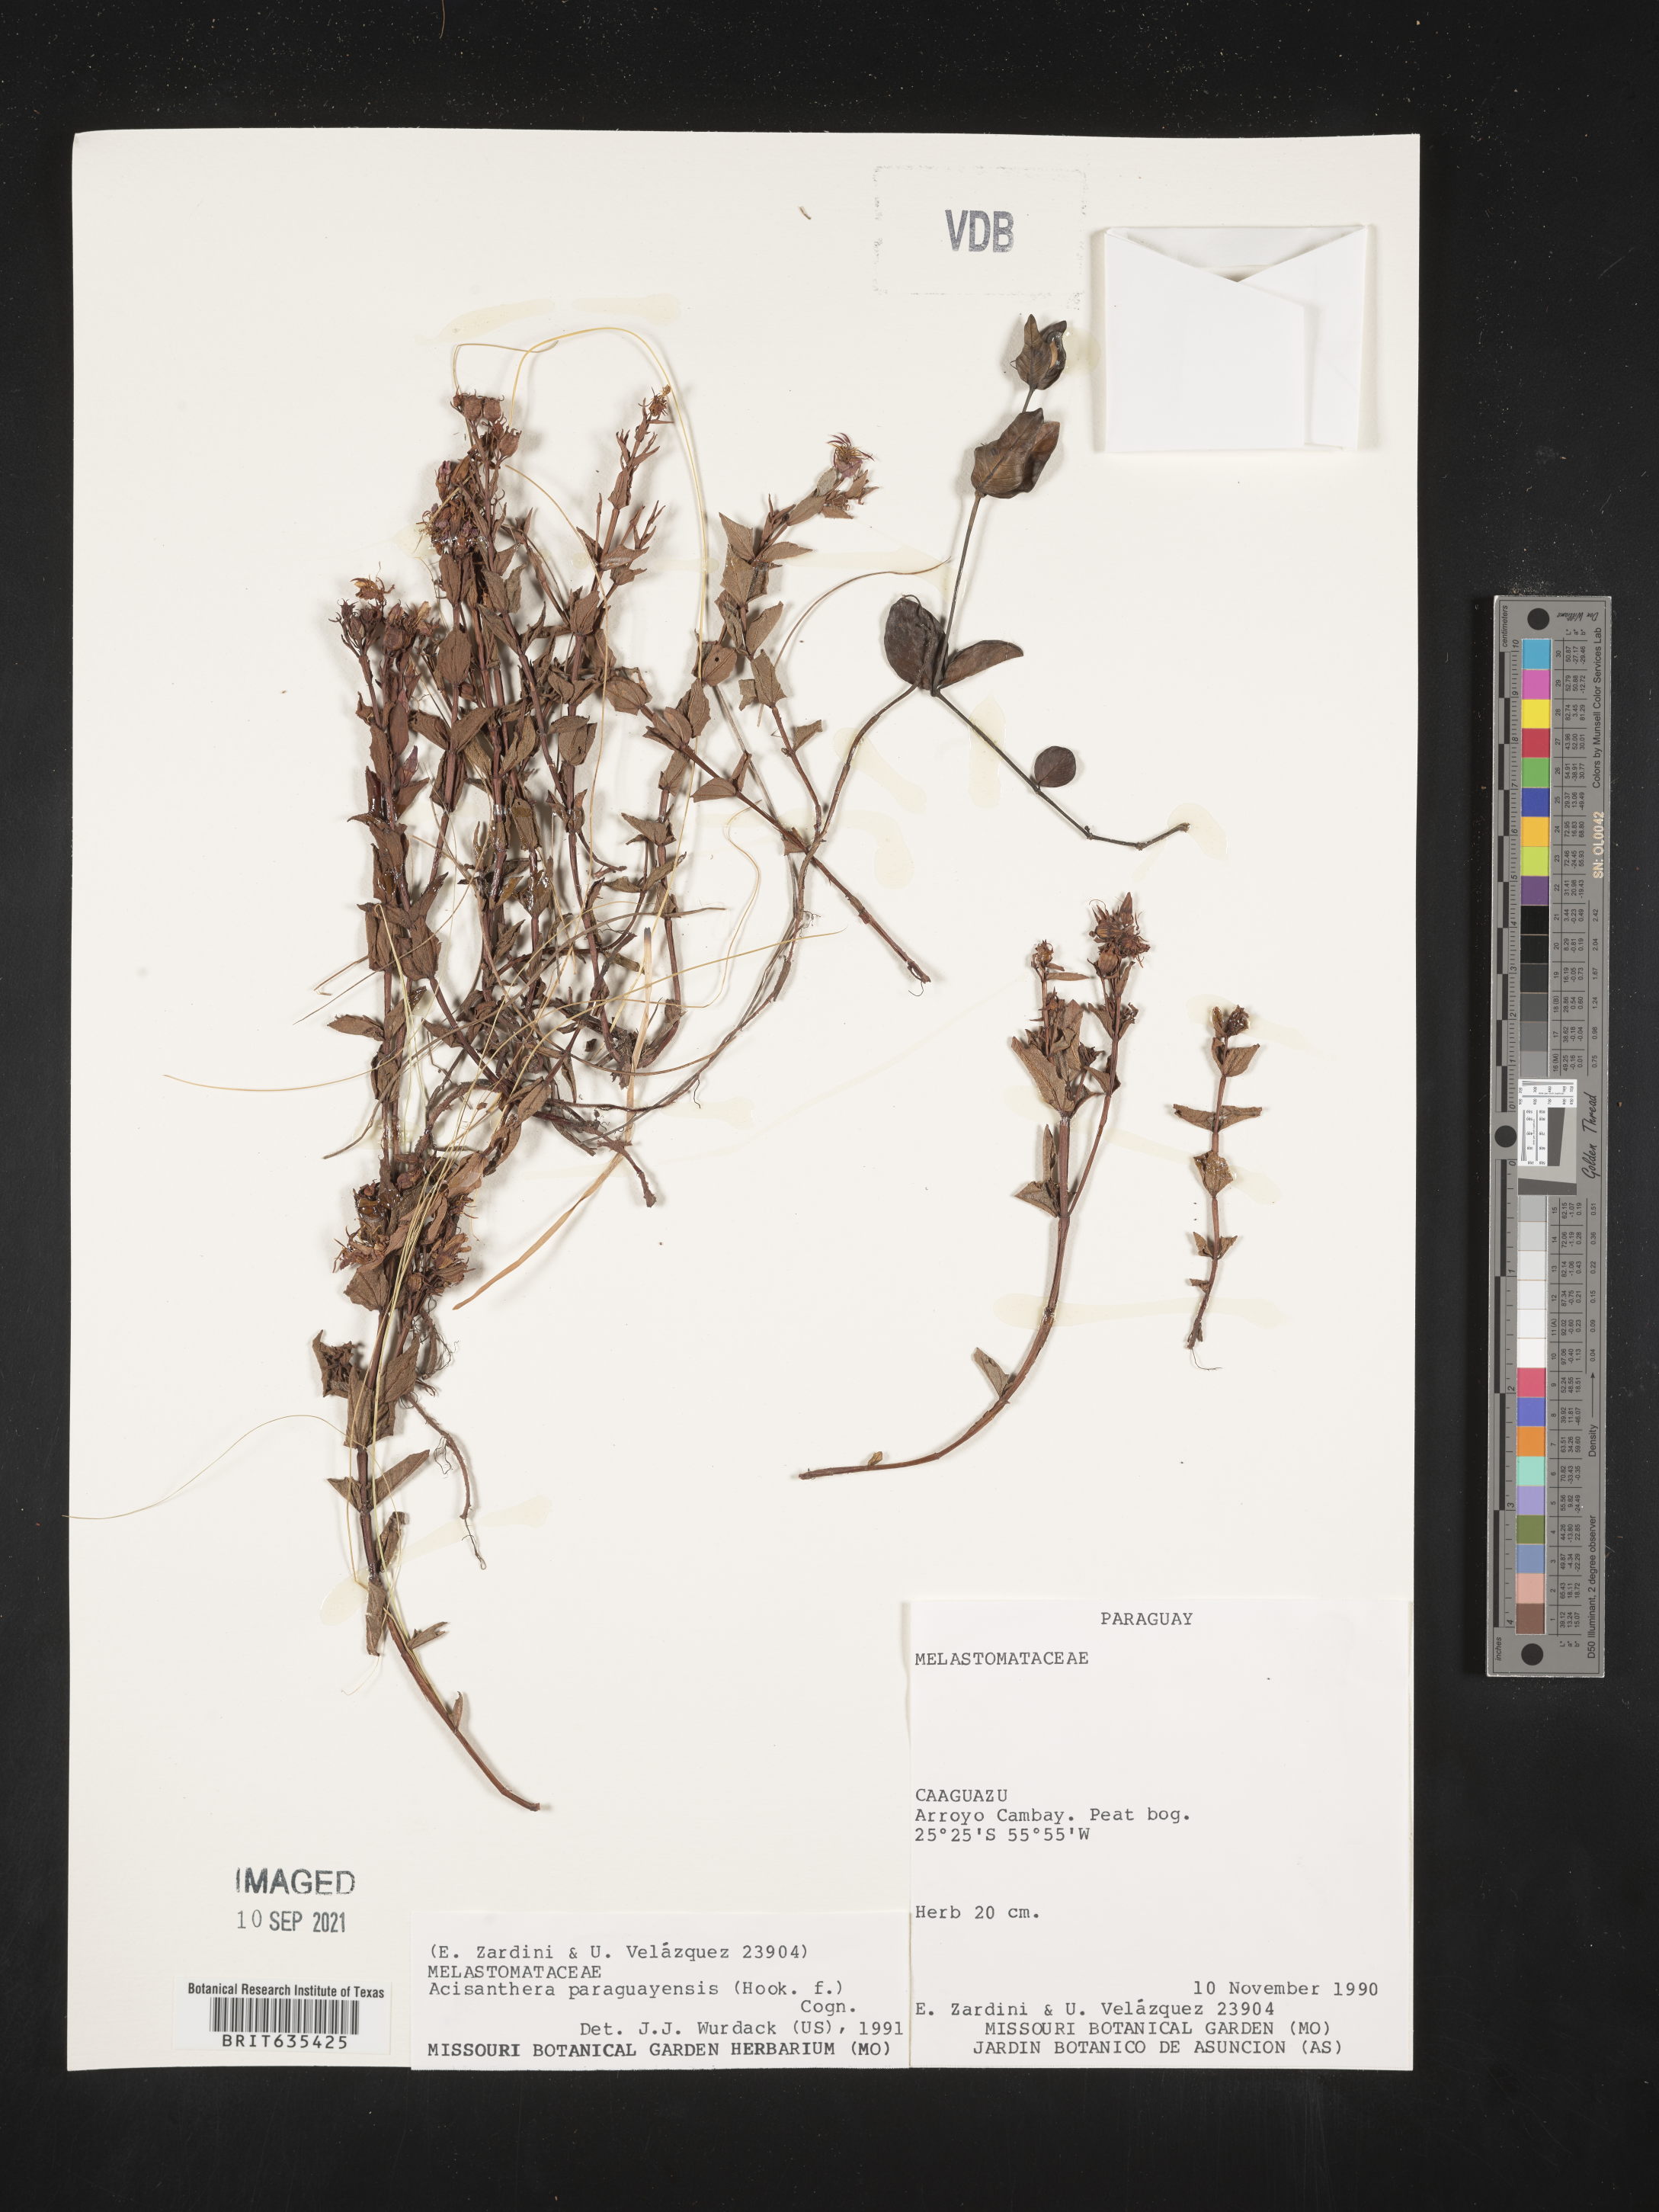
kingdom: Plantae
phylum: Tracheophyta
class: Magnoliopsida
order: Myrtales
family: Melastomataceae
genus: Acisanthera
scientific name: Acisanthera
